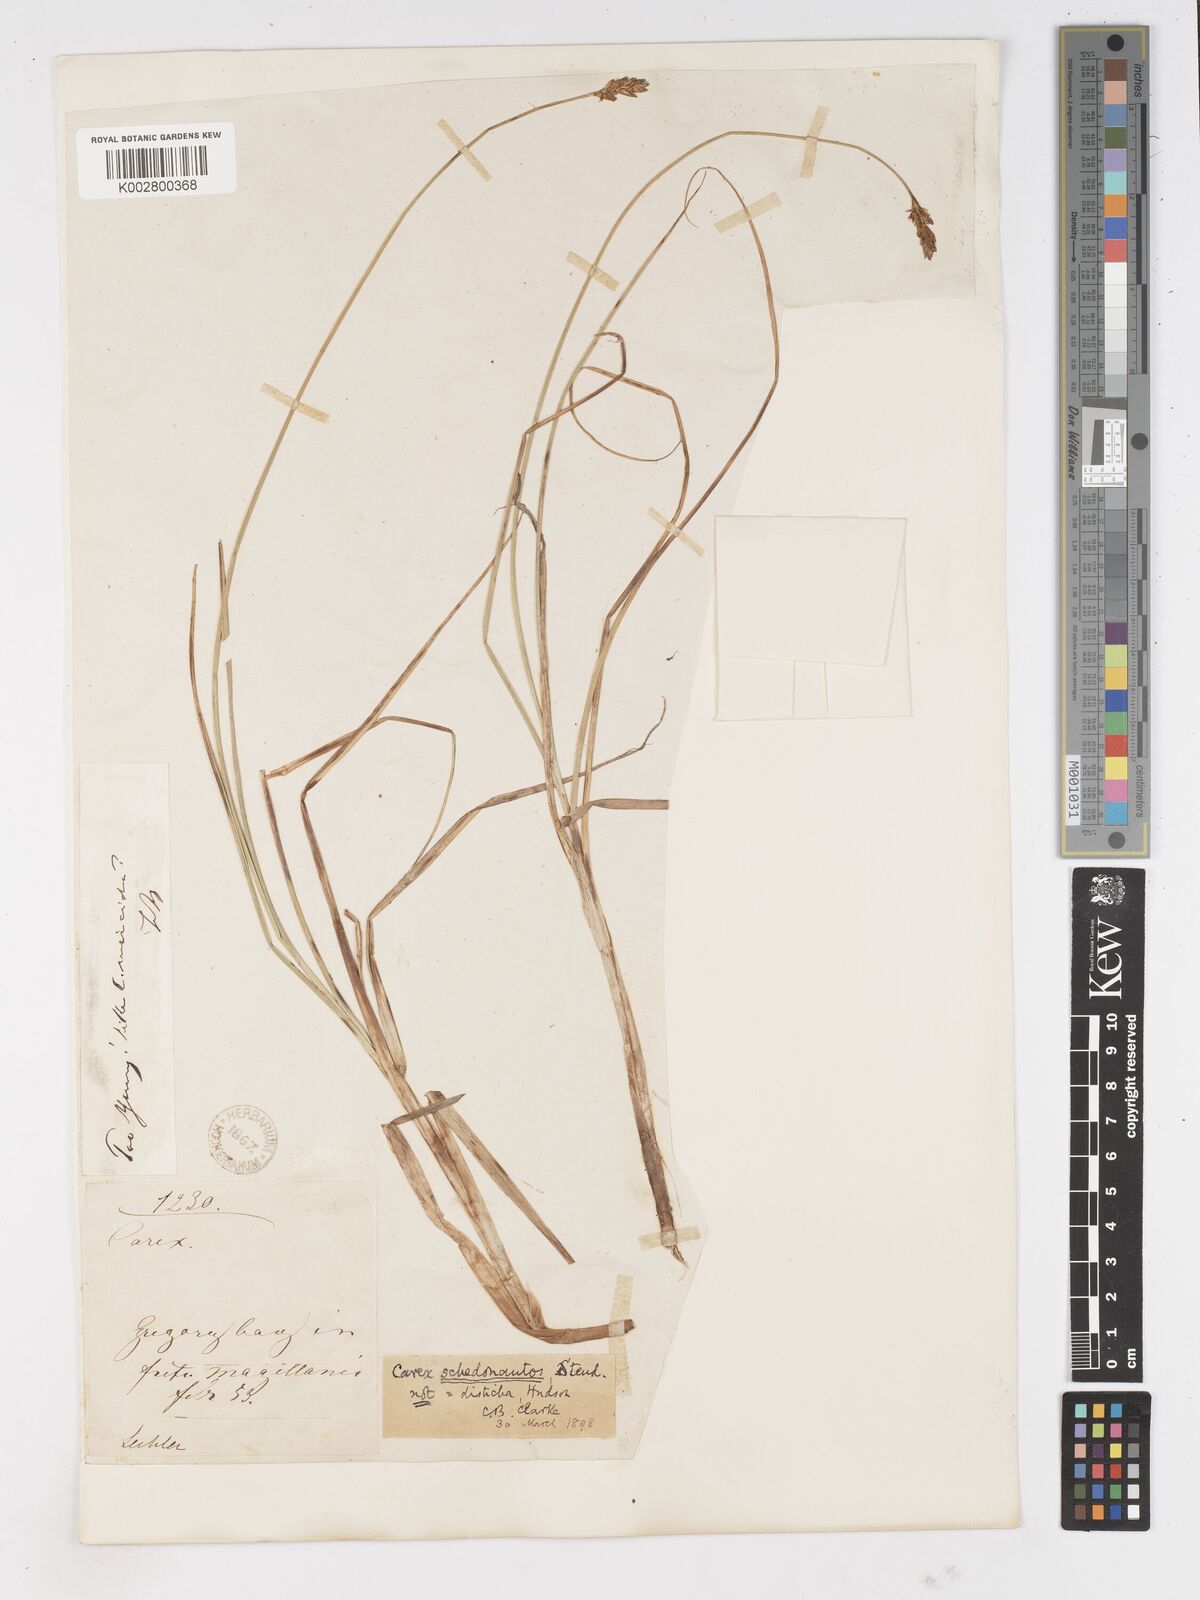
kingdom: Plantae
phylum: Tracheophyta
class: Liliopsida
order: Poales
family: Cyperaceae
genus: Carex
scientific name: Carex gayana
